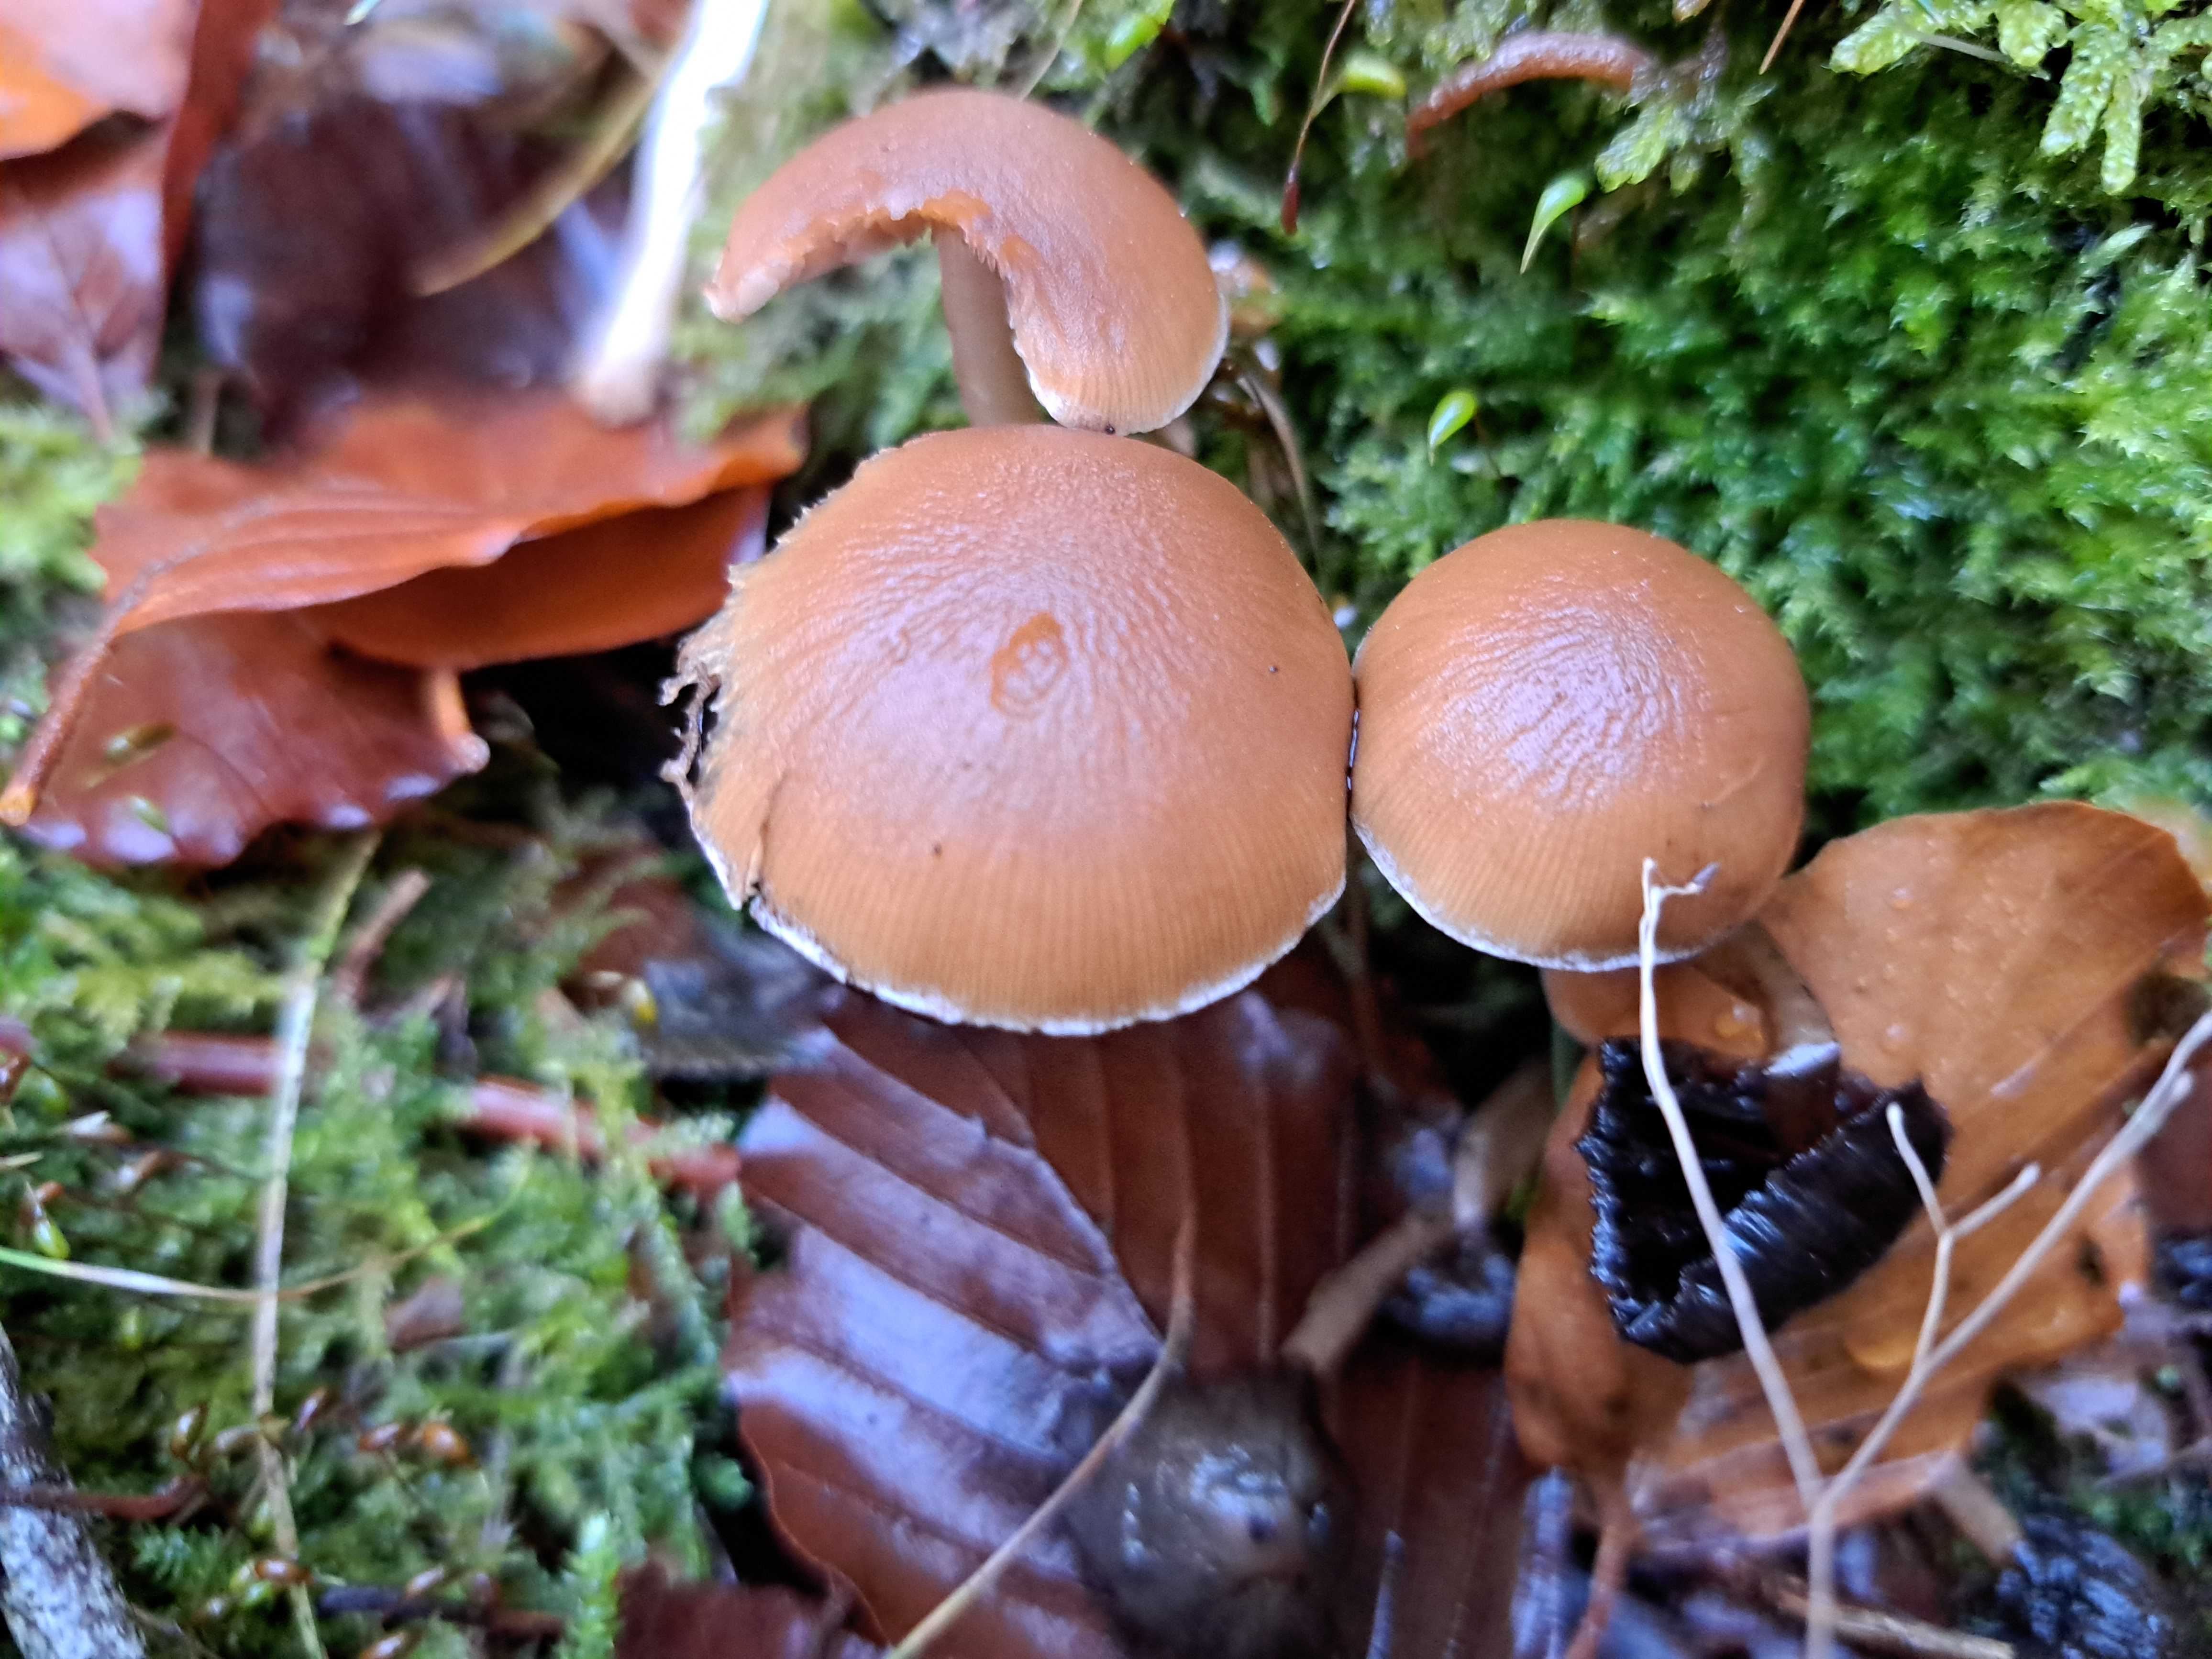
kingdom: Fungi
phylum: Basidiomycota
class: Agaricomycetes
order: Agaricales
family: Psathyrellaceae
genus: Psathyrella
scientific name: Psathyrella piluliformis
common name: lysstokket mørkhat
